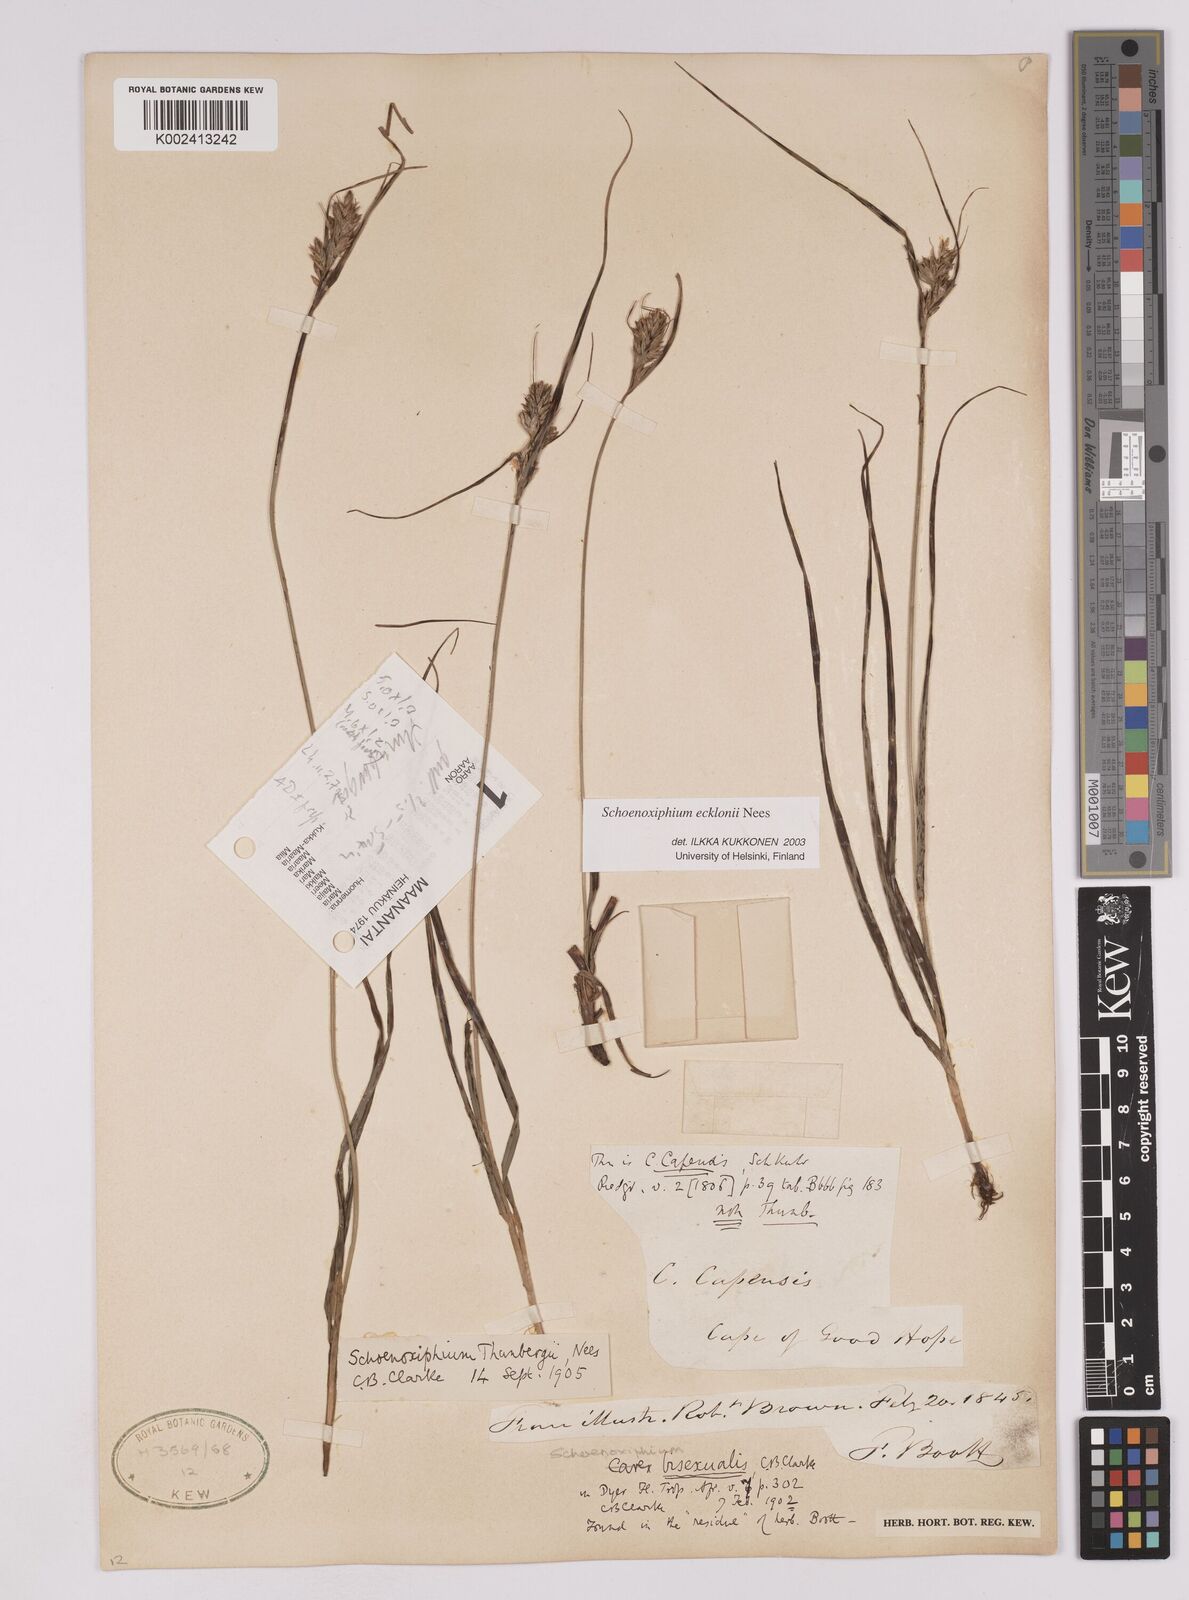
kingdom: Plantae
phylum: Tracheophyta
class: Liliopsida
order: Poales
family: Cyperaceae
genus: Carex
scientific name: Carex capensis
